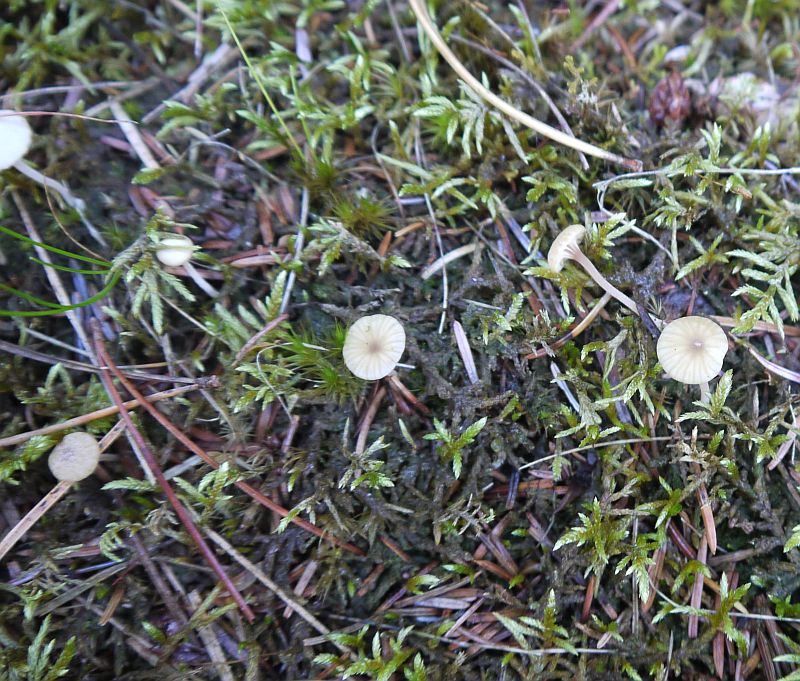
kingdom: Fungi
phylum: Basidiomycota
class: Agaricomycetes
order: Agaricales
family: Hygrophoraceae
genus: Lichenomphalia
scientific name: Lichenomphalia umbellifera
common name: tørve-lavhat
